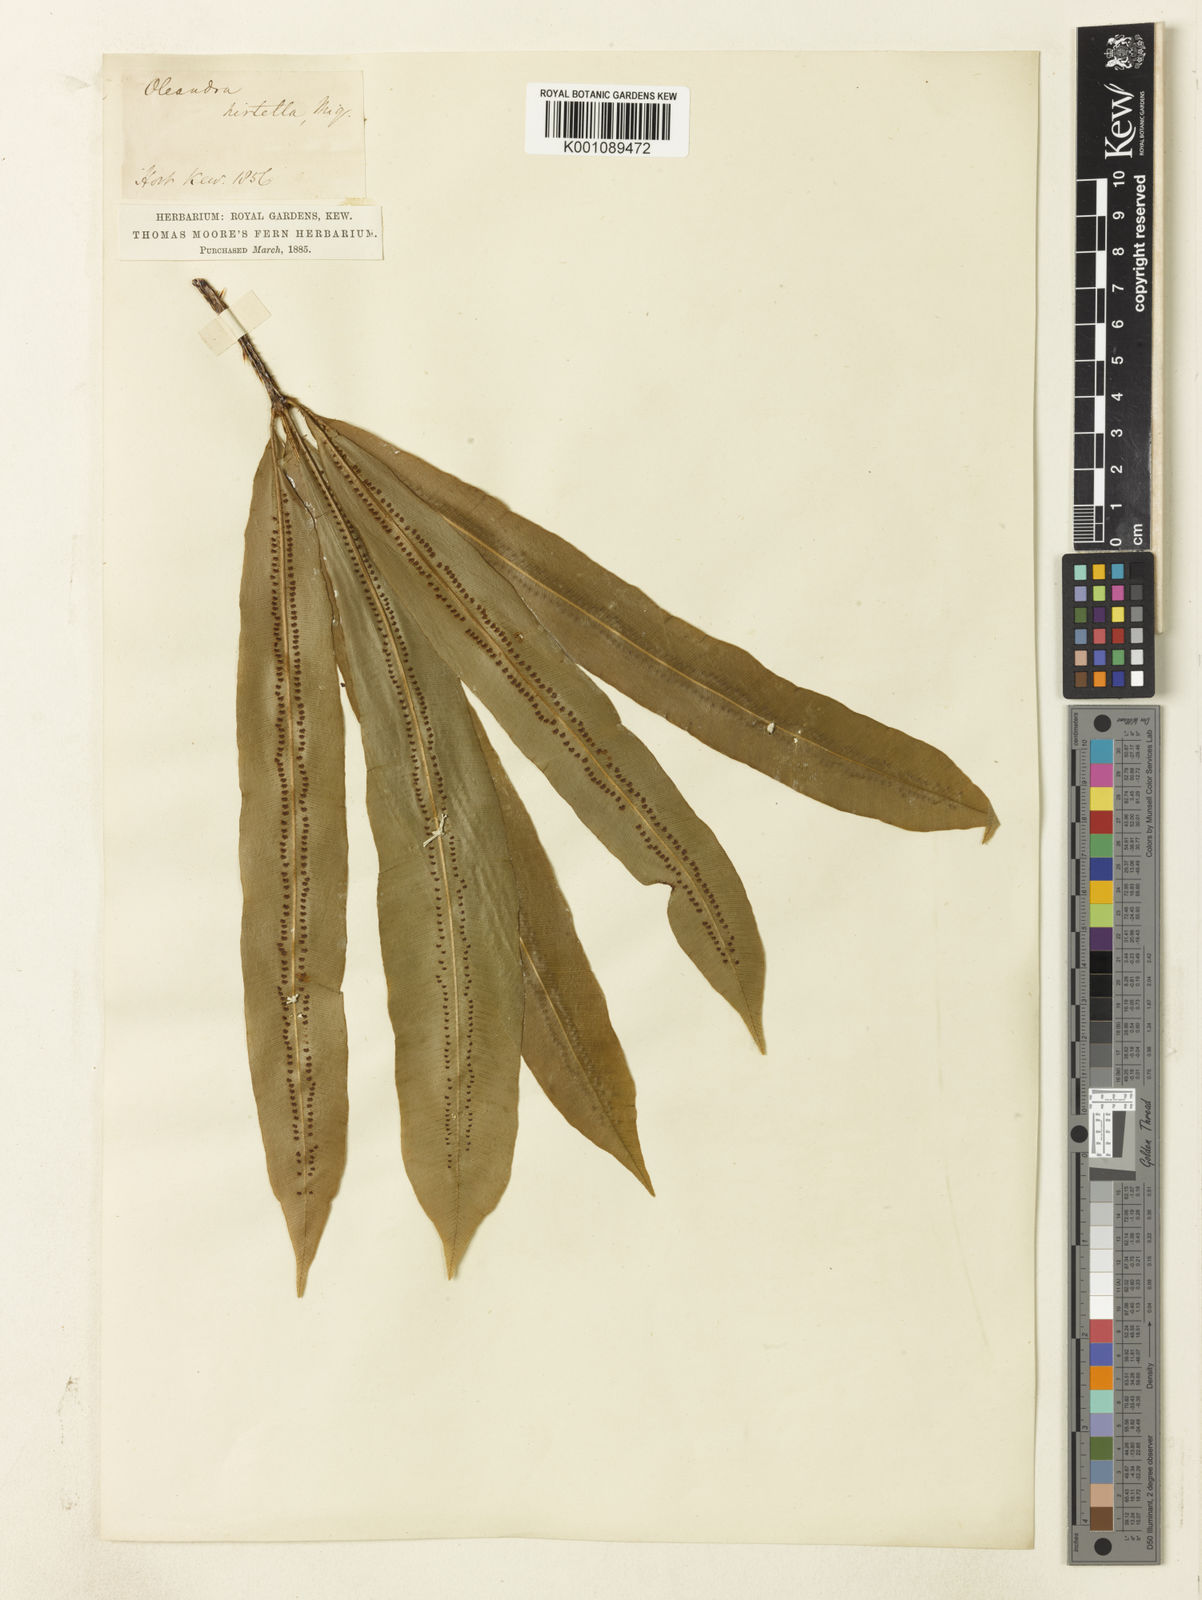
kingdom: Plantae
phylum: Tracheophyta
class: Polypodiopsida
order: Polypodiales
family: Oleandraceae
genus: Oleandra
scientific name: Oleandra neriiformis
